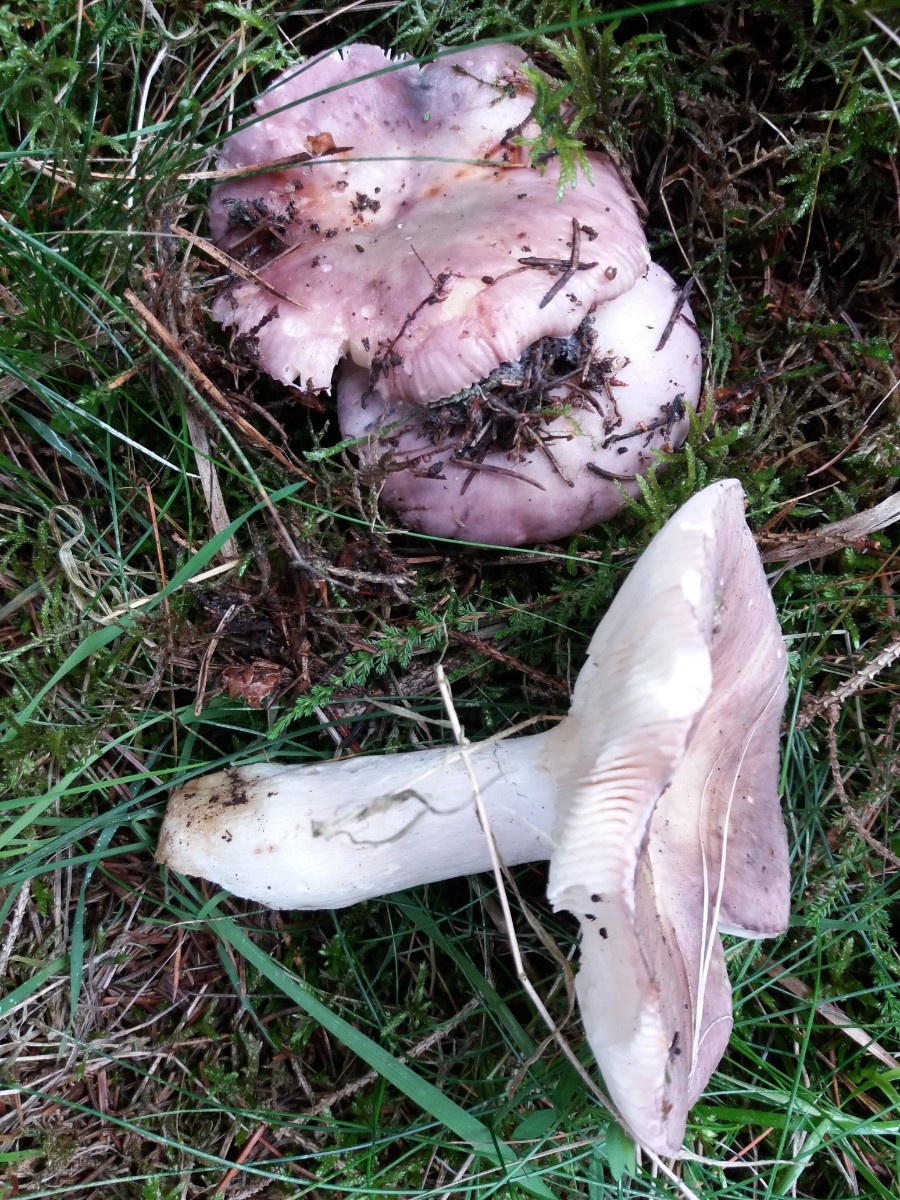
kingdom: Fungi
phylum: Basidiomycota
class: Agaricomycetes
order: Russulales
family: Russulaceae
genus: Russula
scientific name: Russula
